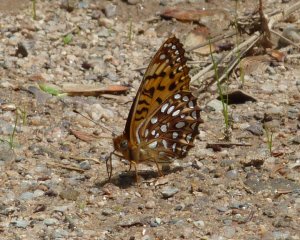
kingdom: Animalia
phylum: Arthropoda
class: Insecta
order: Lepidoptera
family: Nymphalidae
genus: Speyeria
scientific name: Speyeria atlantis
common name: Atlantis Fritillary
